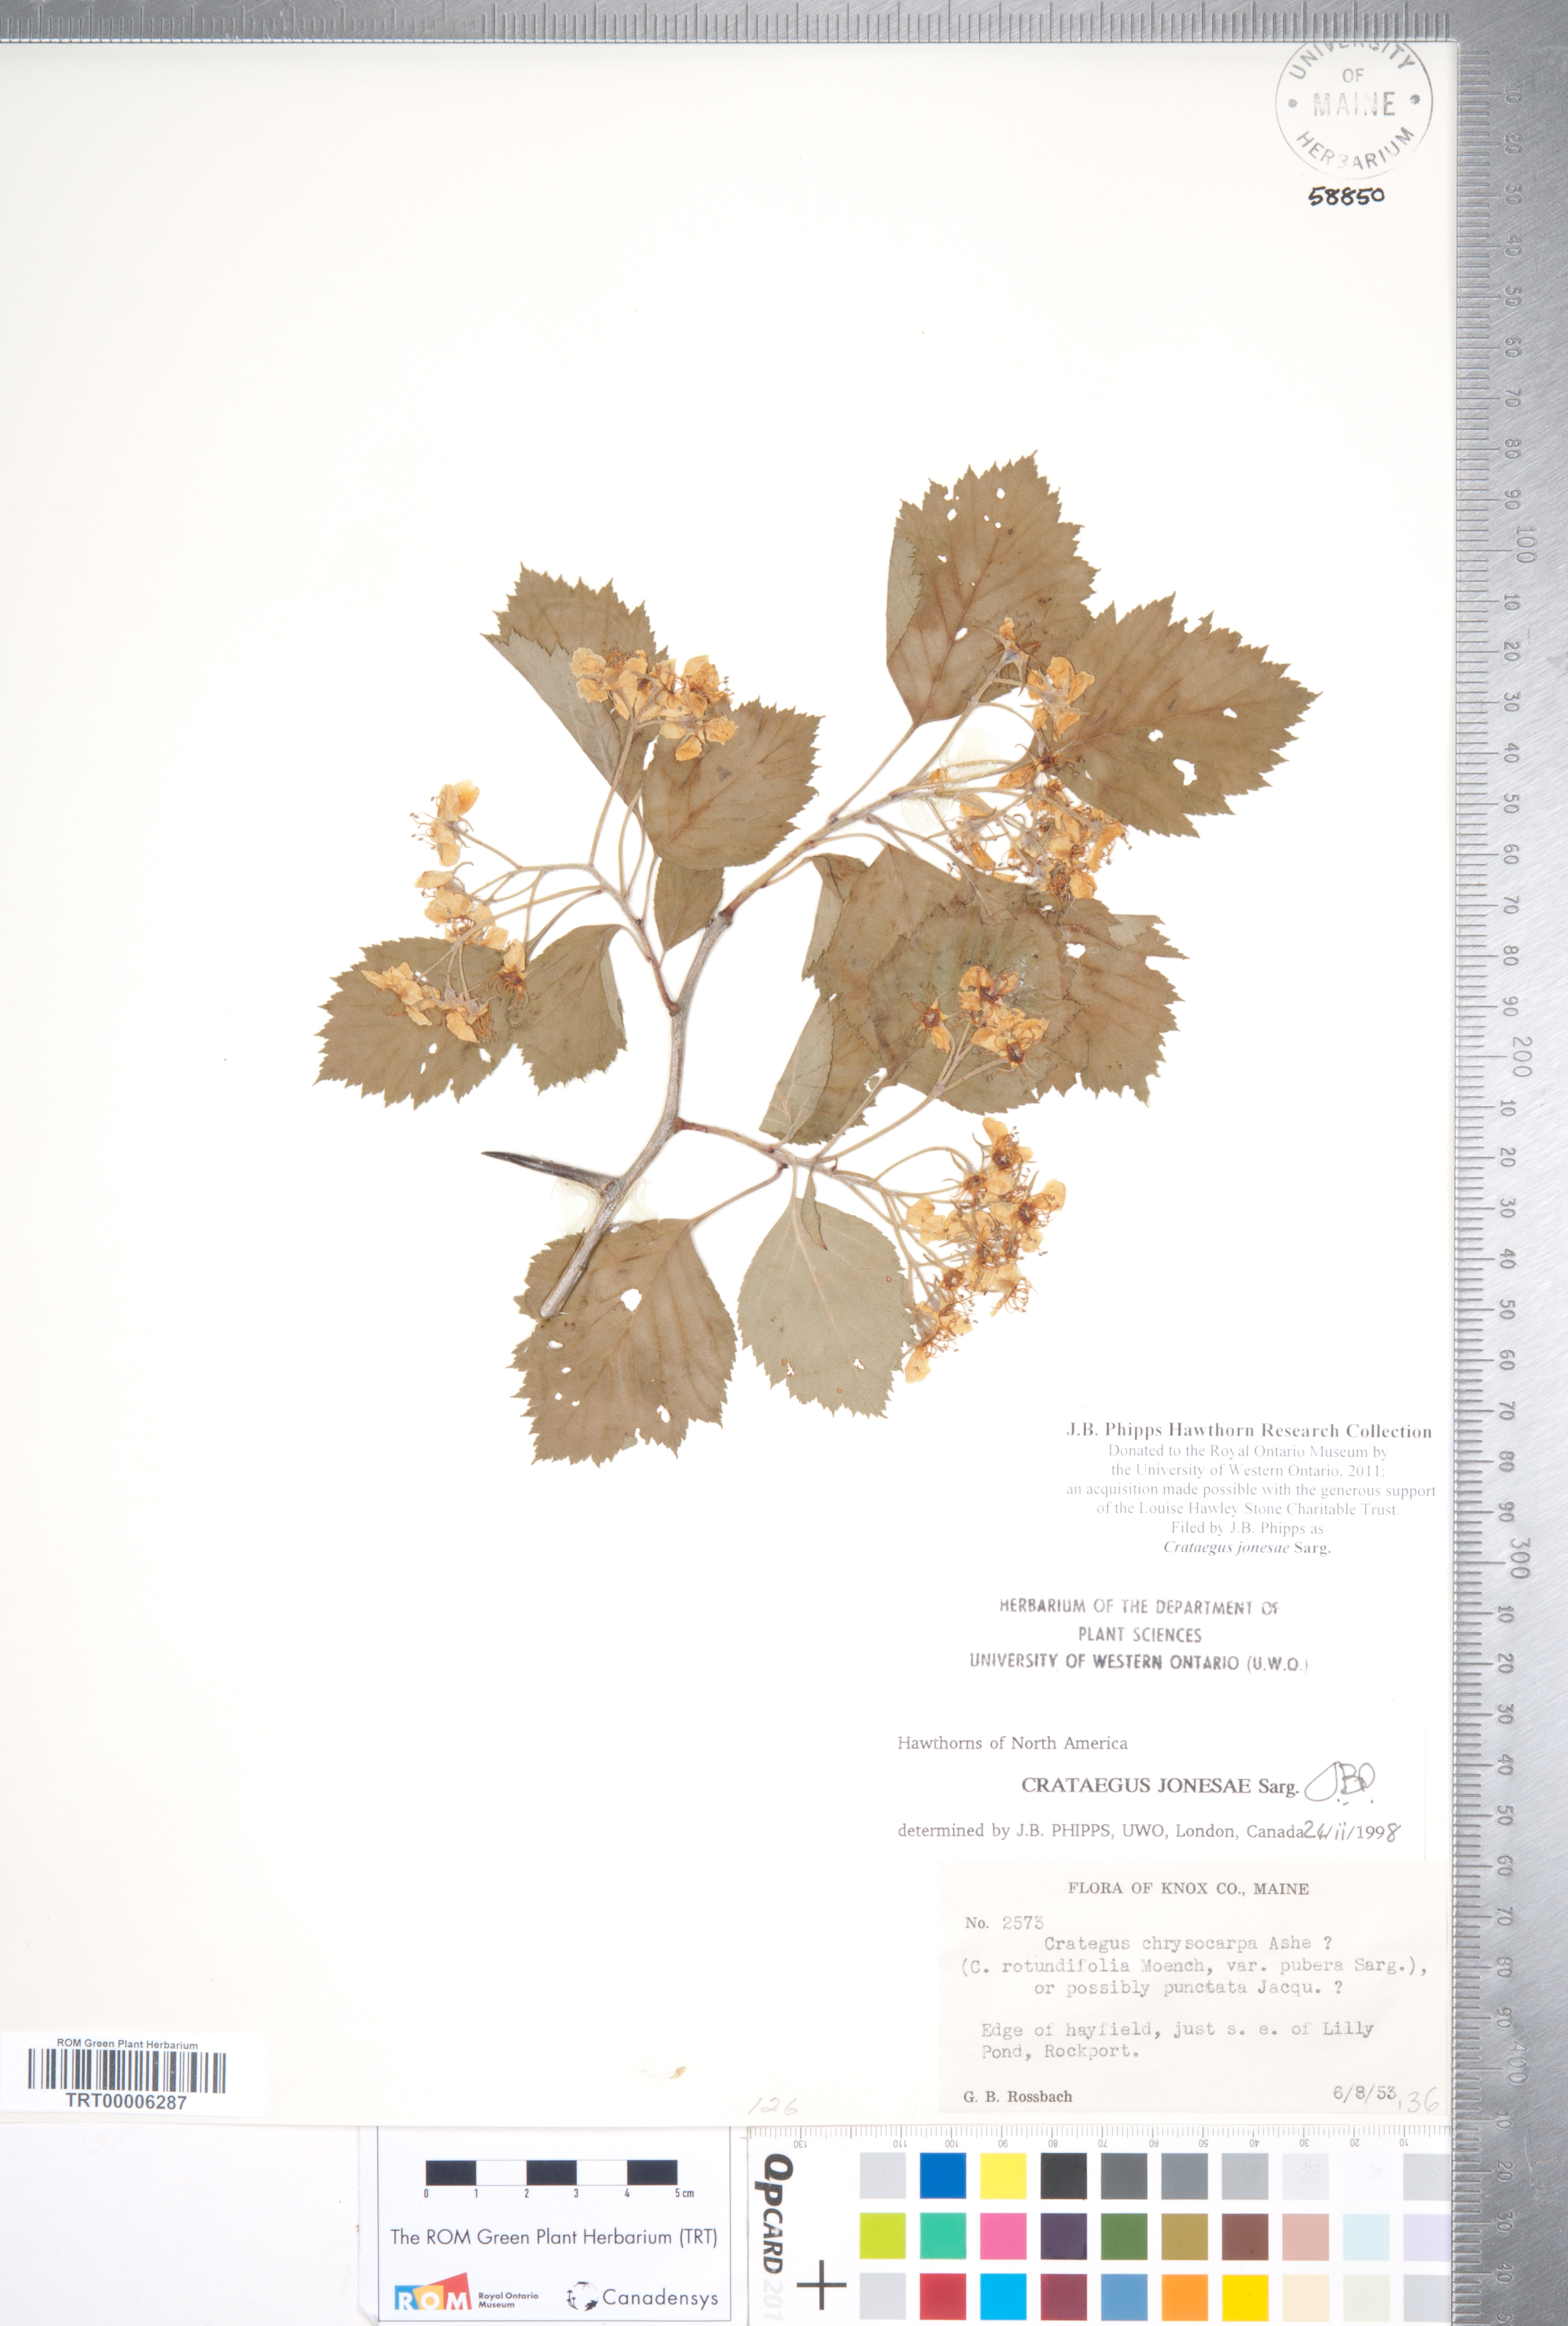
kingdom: Plantae
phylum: Tracheophyta
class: Magnoliopsida
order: Rosales
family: Rosaceae
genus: Crataegus
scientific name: Crataegus jonesae
